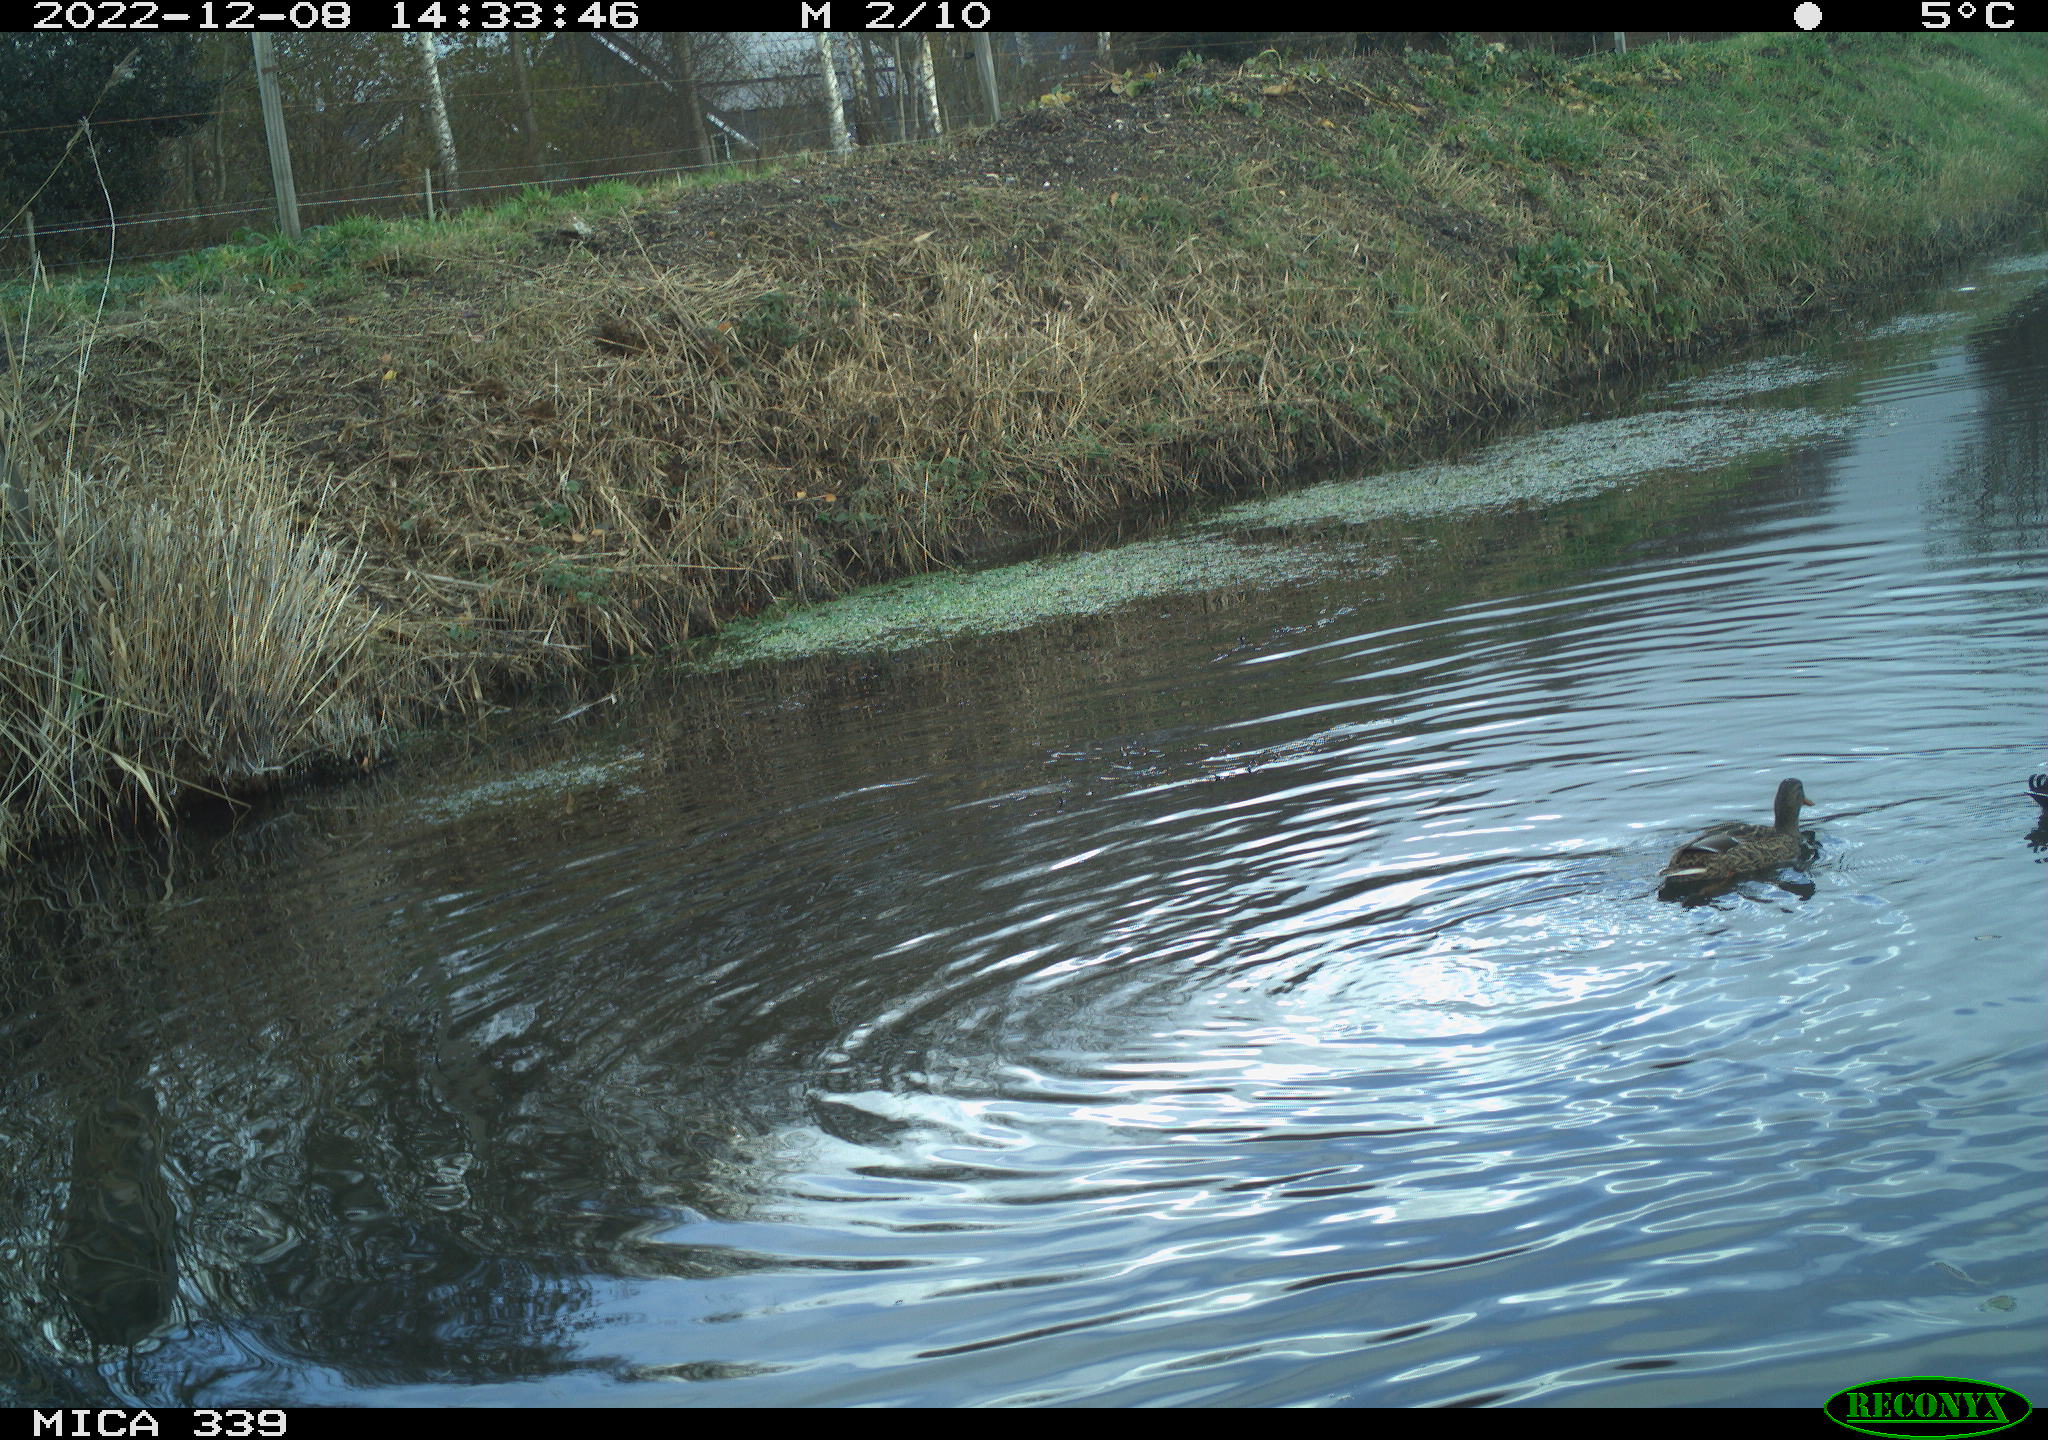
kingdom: Animalia
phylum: Chordata
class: Aves
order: Anseriformes
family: Anatidae
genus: Anas
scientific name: Anas
